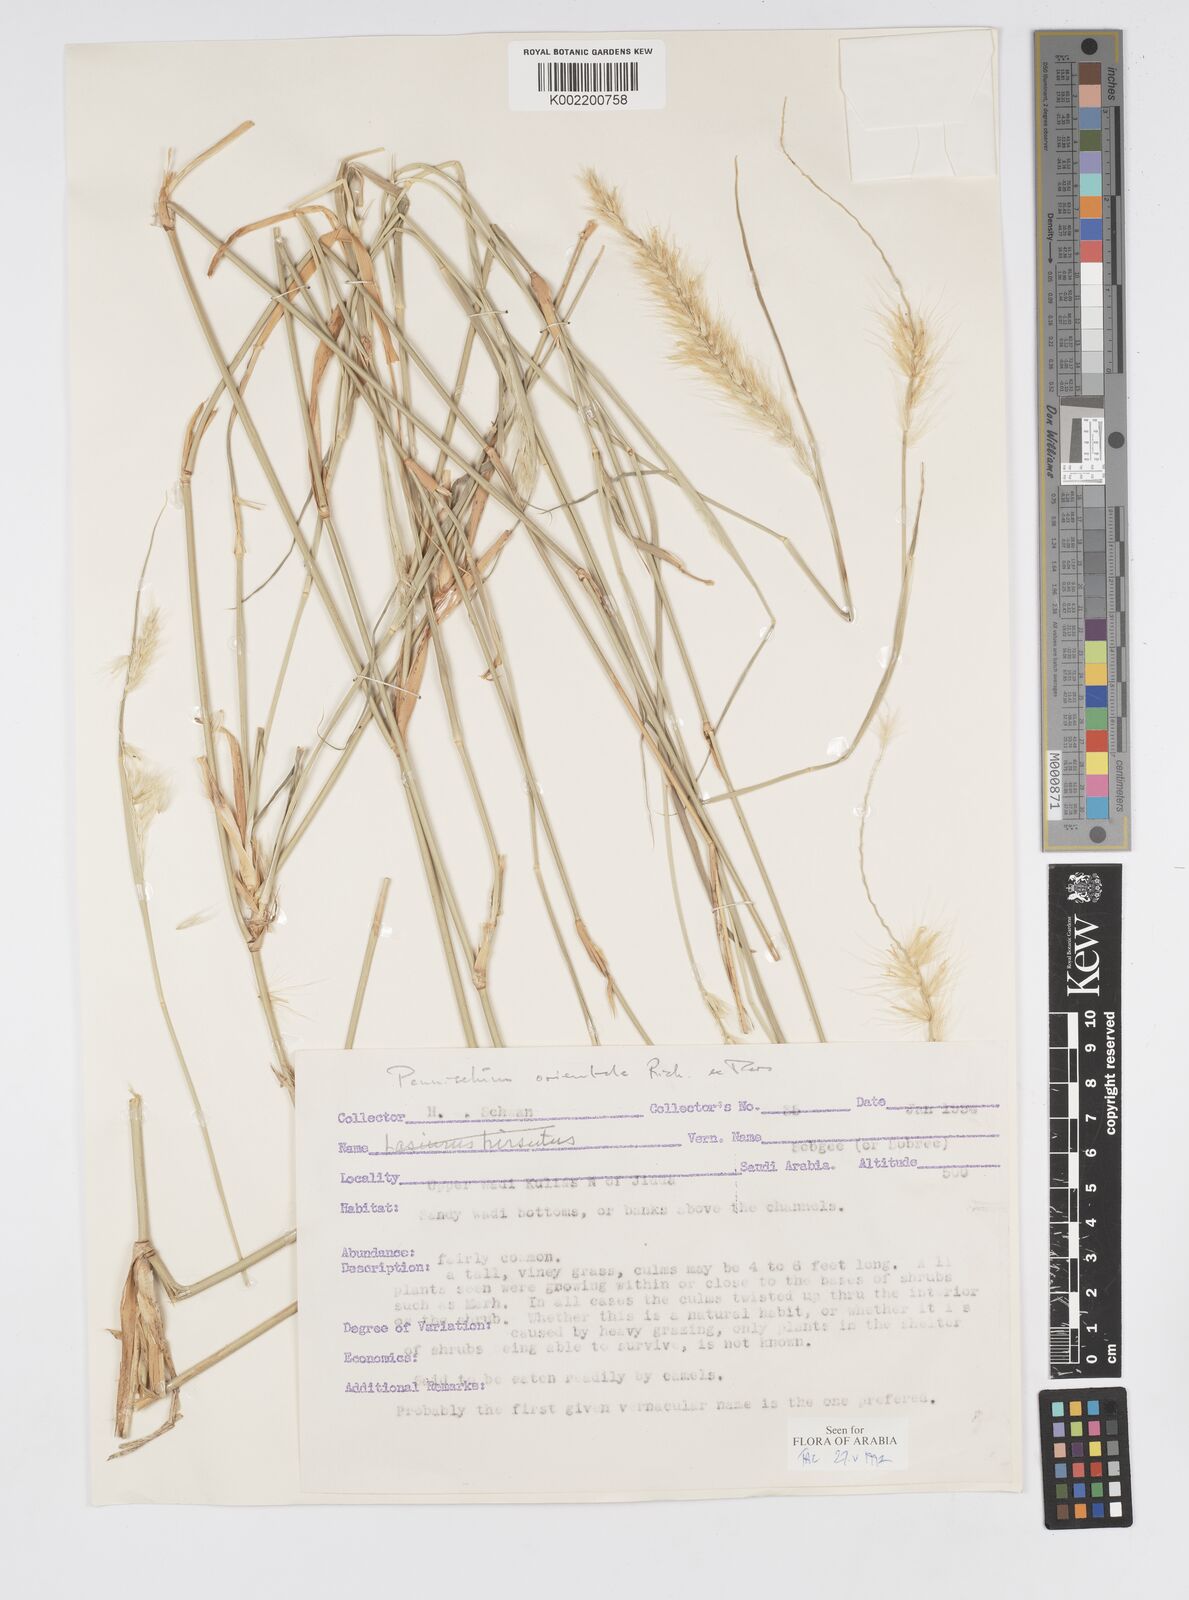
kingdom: Plantae
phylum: Tracheophyta
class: Liliopsida
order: Poales
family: Poaceae
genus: Cenchrus
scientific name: Cenchrus divisus
